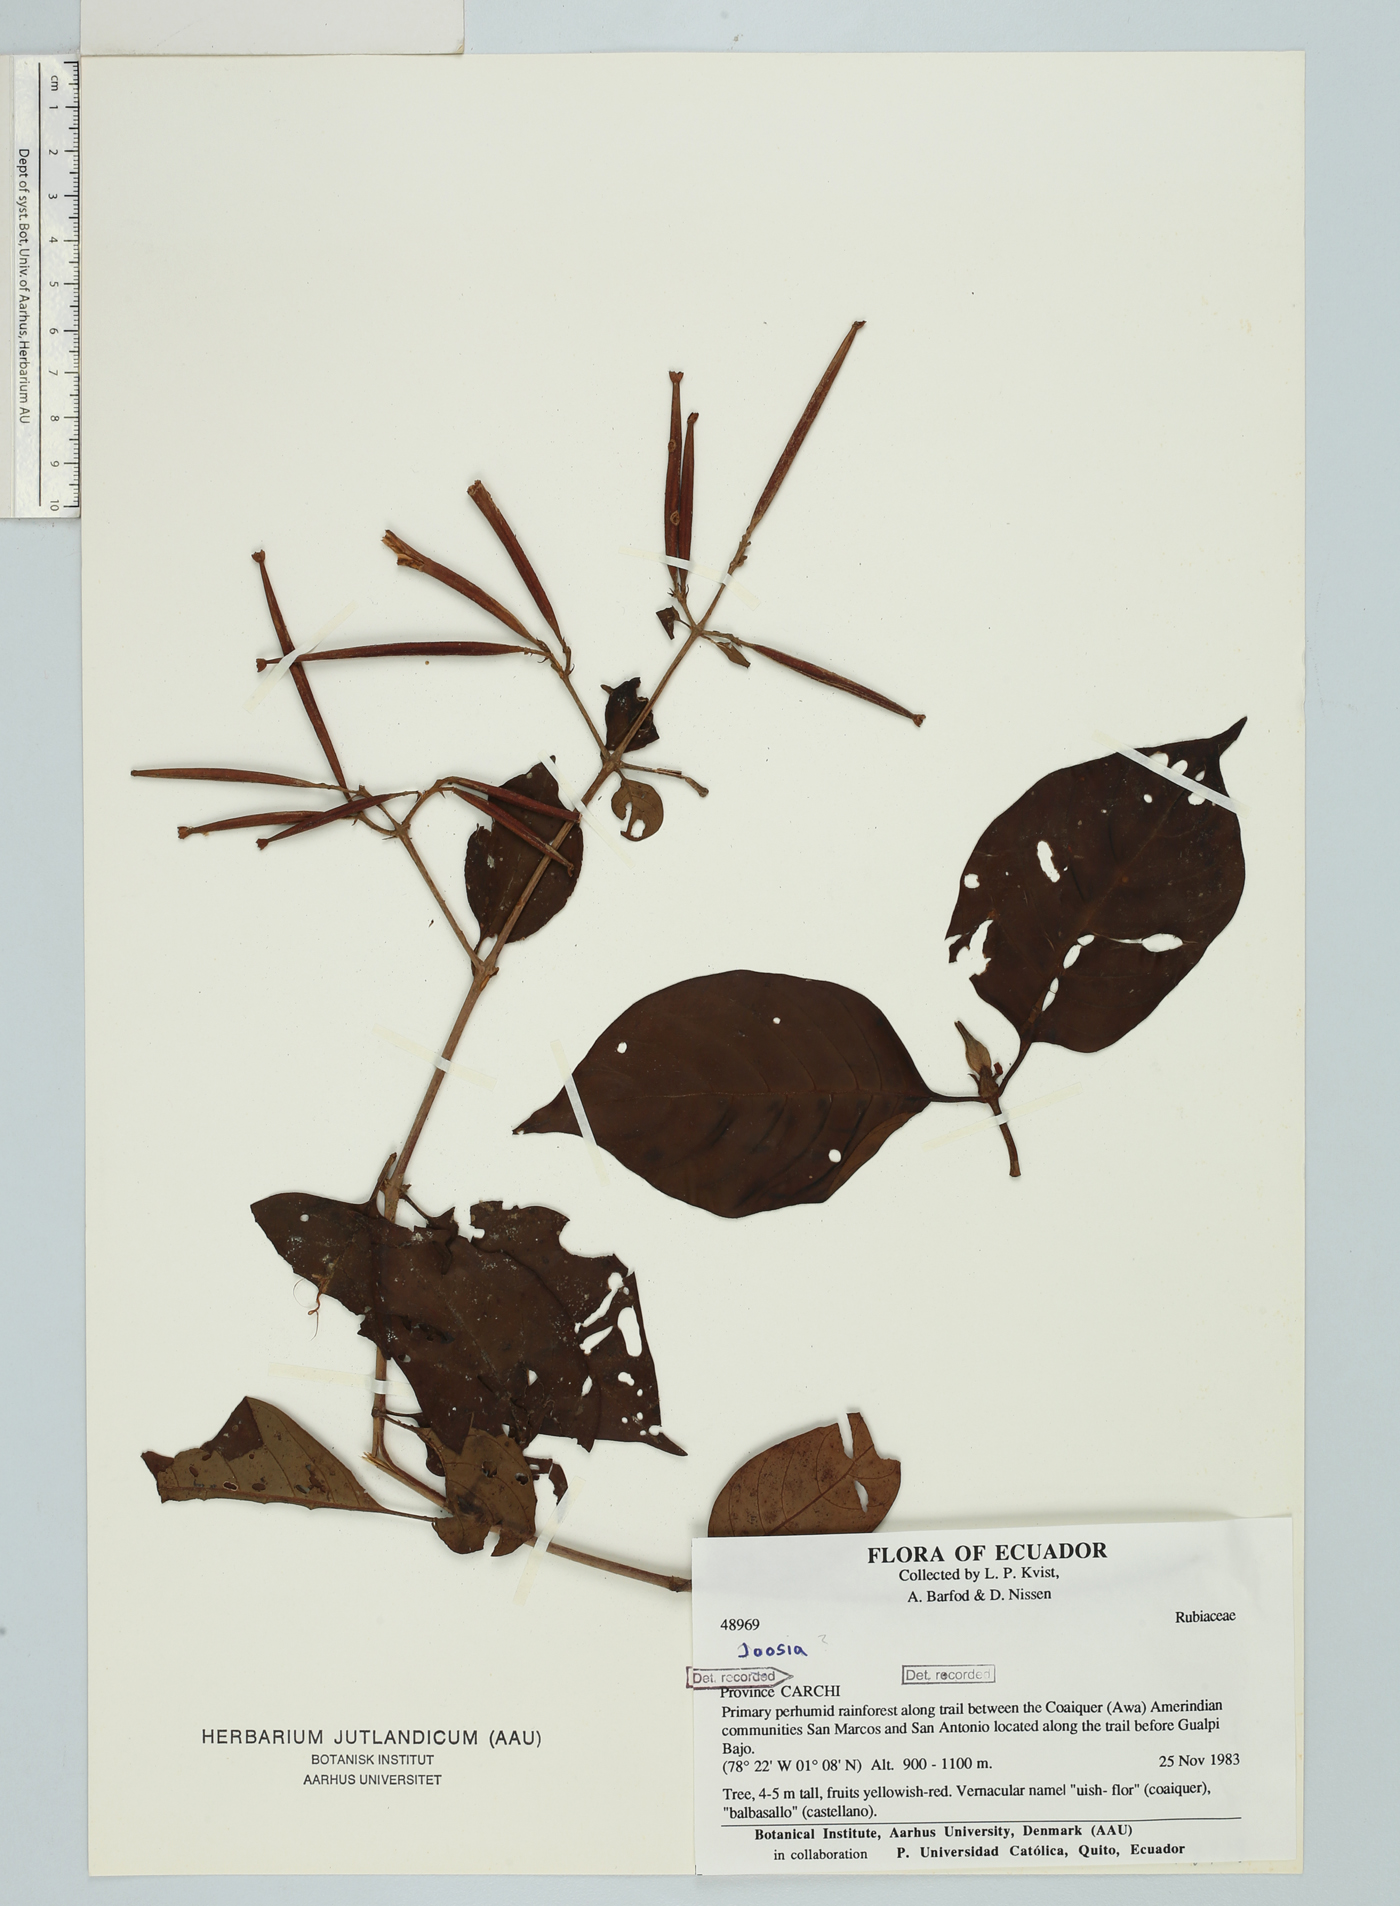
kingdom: Plantae
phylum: Tracheophyta
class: Magnoliopsida
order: Gentianales
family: Rubiaceae
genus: Cinchona
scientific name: Cinchona barbacoensis
